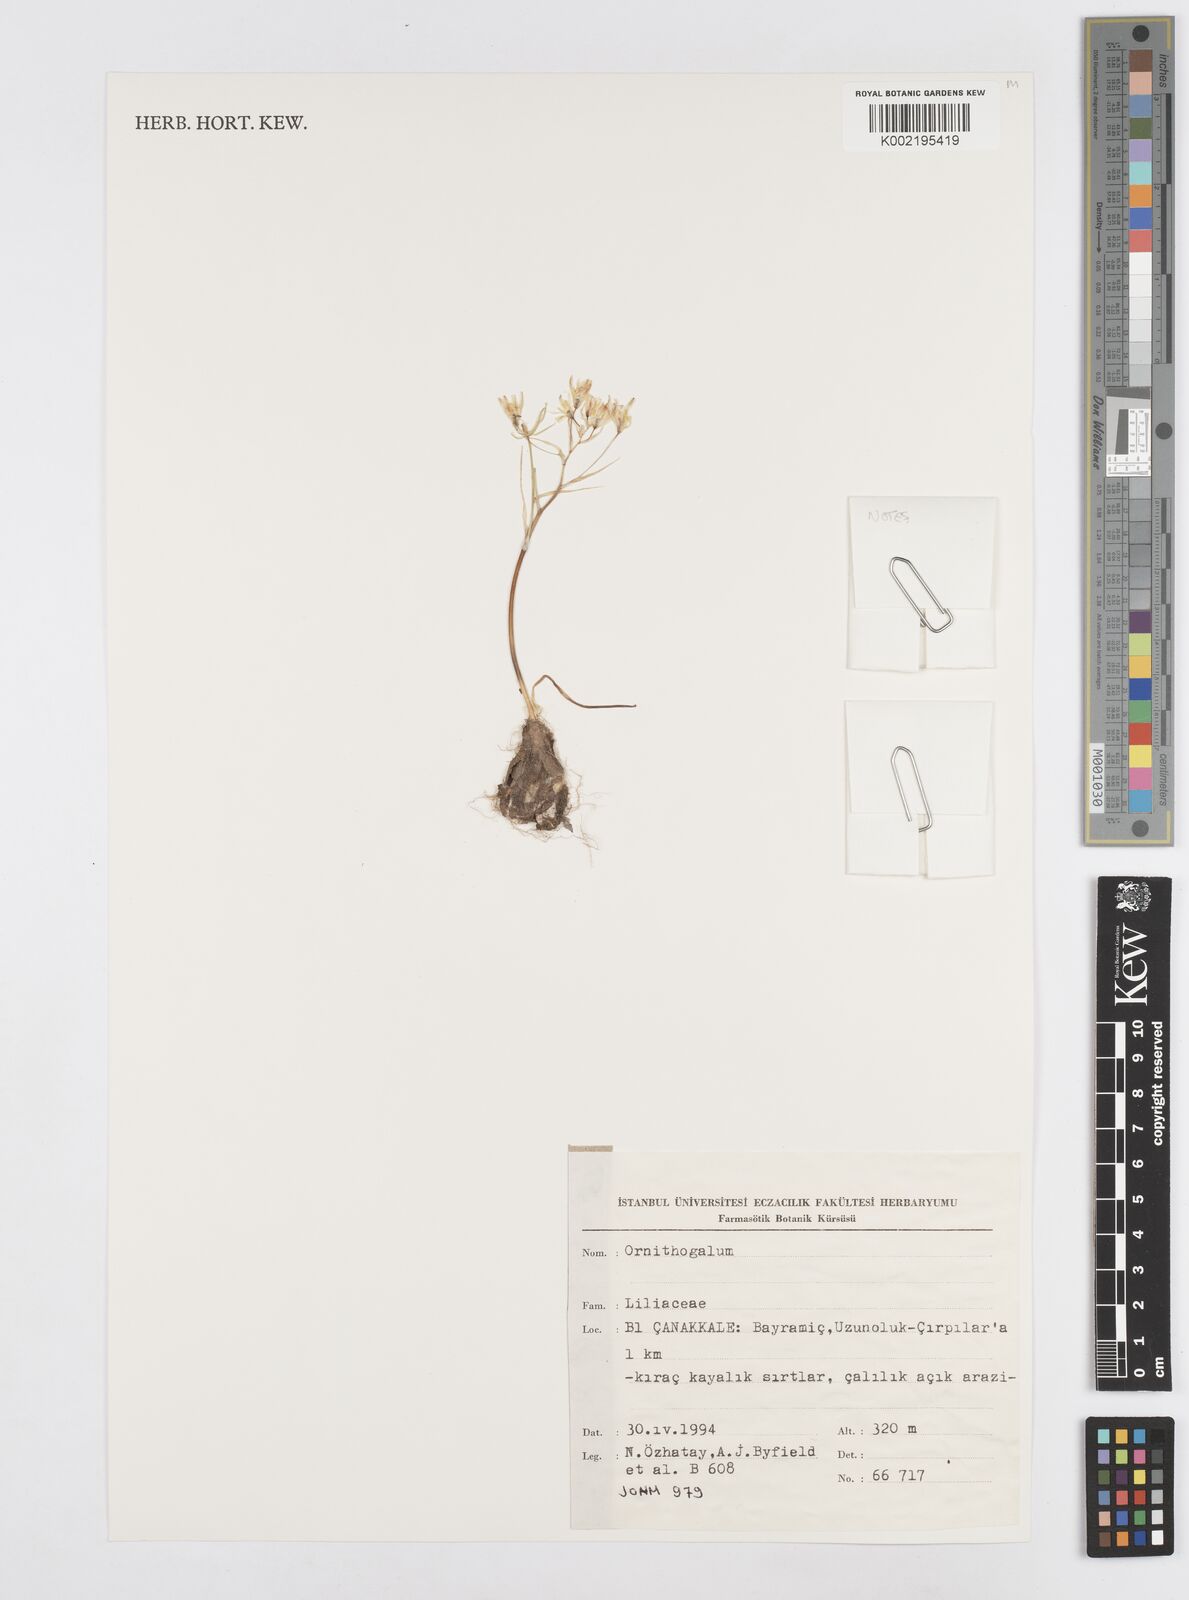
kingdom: Plantae
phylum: Tracheophyta
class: Liliopsida
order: Asparagales
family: Asparagaceae
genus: Ornithogalum
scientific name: Ornithogalum
